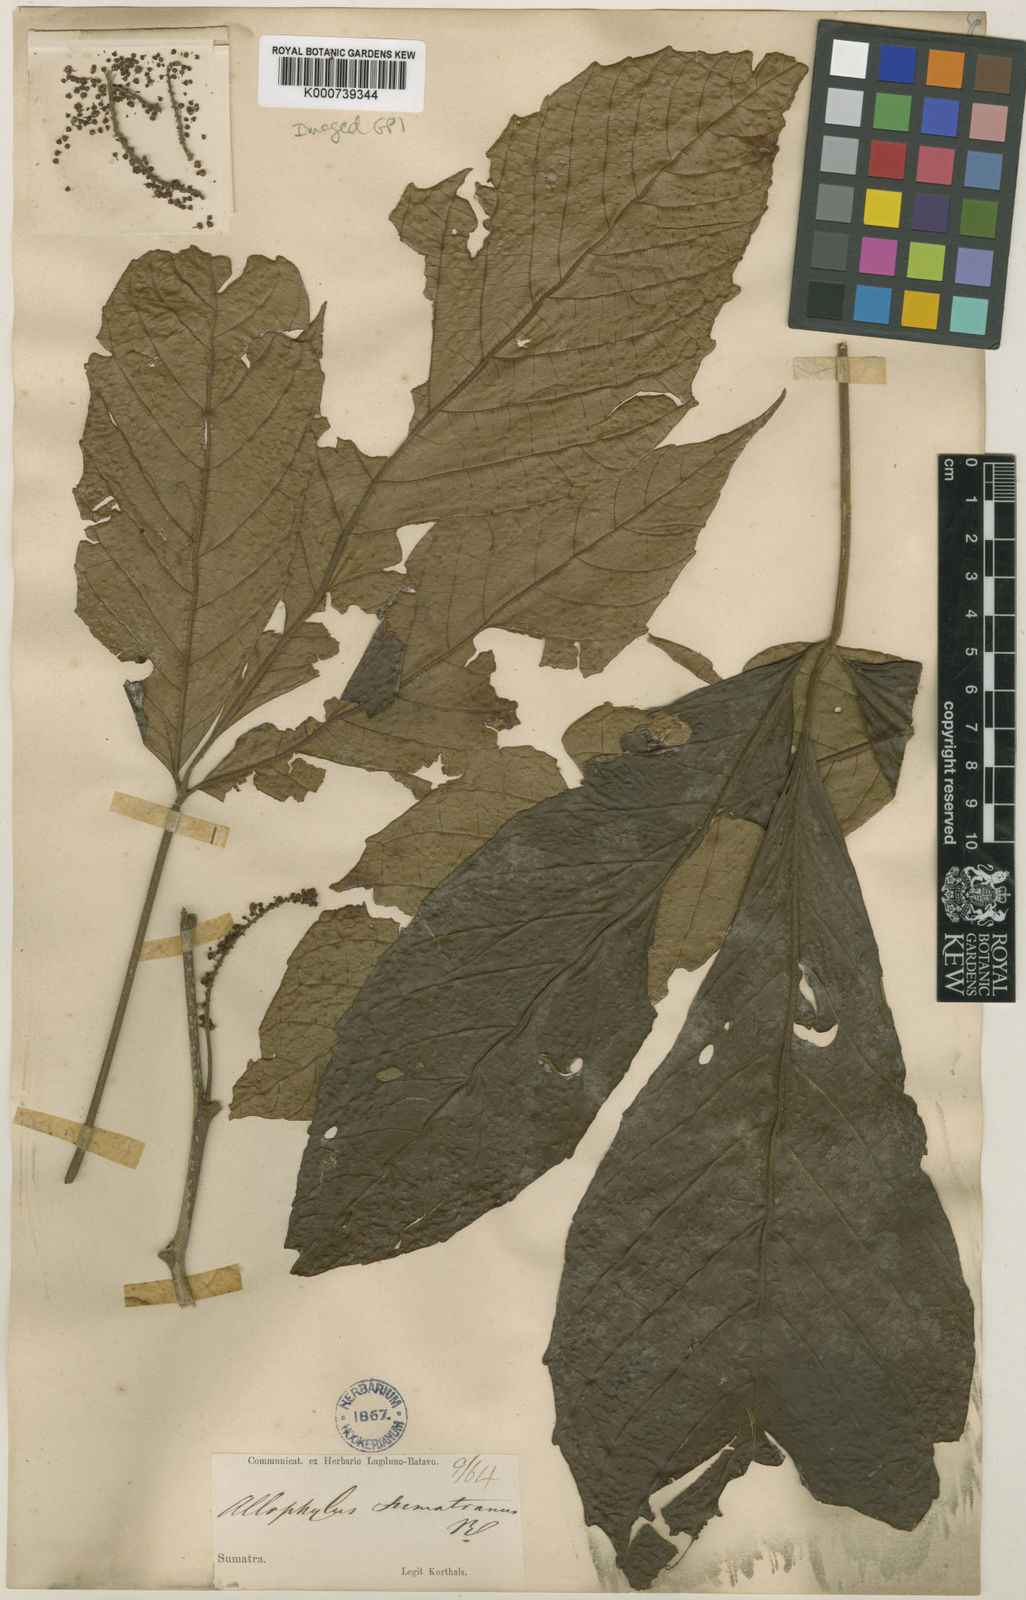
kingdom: Plantae
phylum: Tracheophyta
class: Magnoliopsida
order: Sapindales
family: Sapindaceae
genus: Allophylus
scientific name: Allophylus sumatranus
